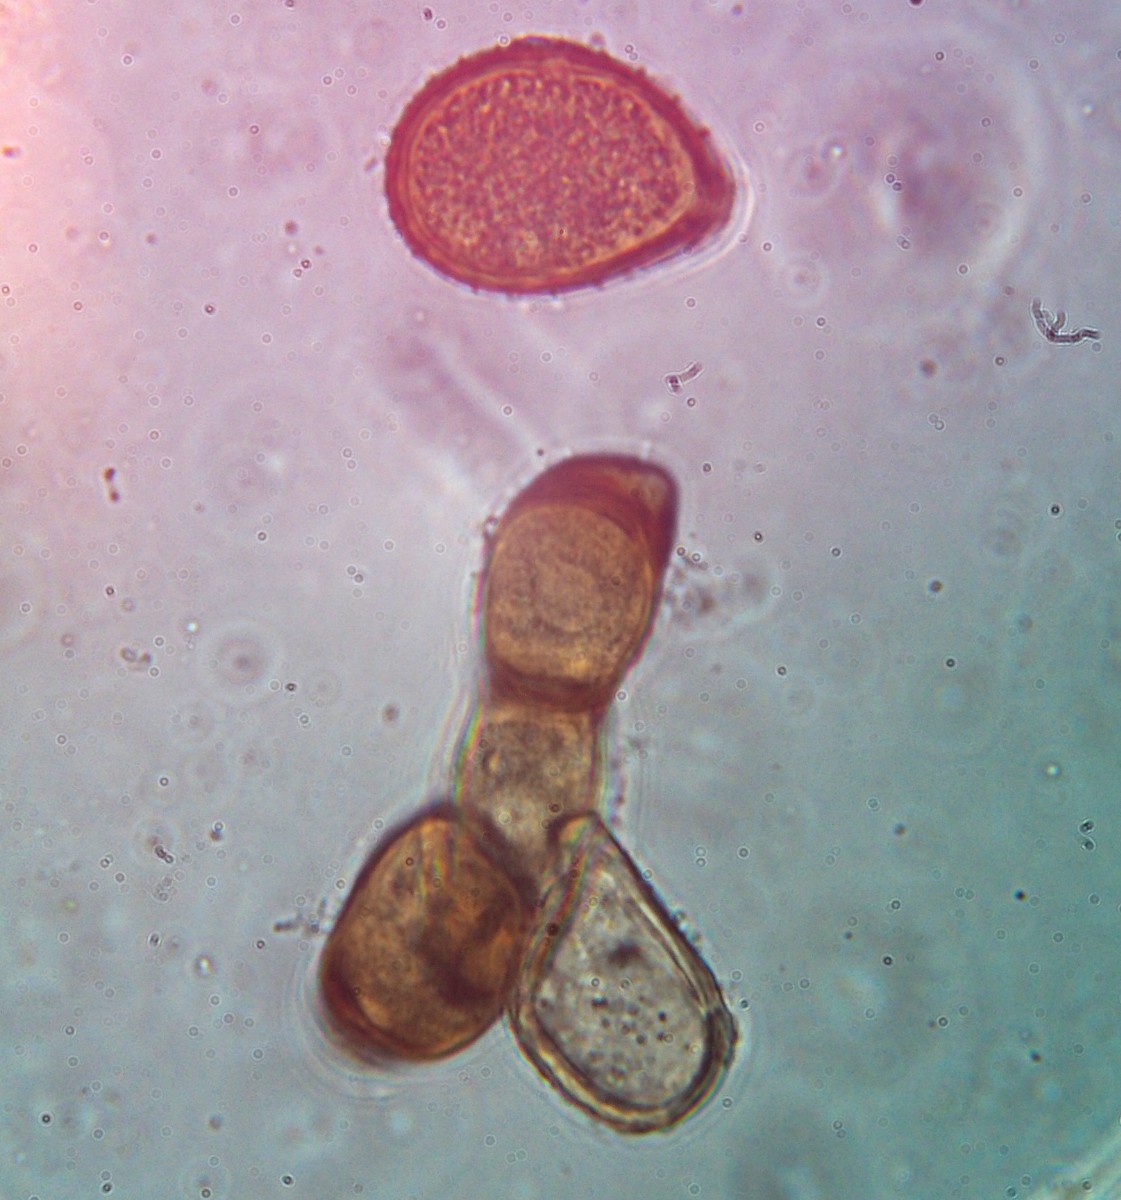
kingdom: Fungi
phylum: Basidiomycota
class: Pucciniomycetes
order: Pucciniales
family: Pucciniaceae
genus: Puccinia
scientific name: Puccinia ribesii-pendulae
